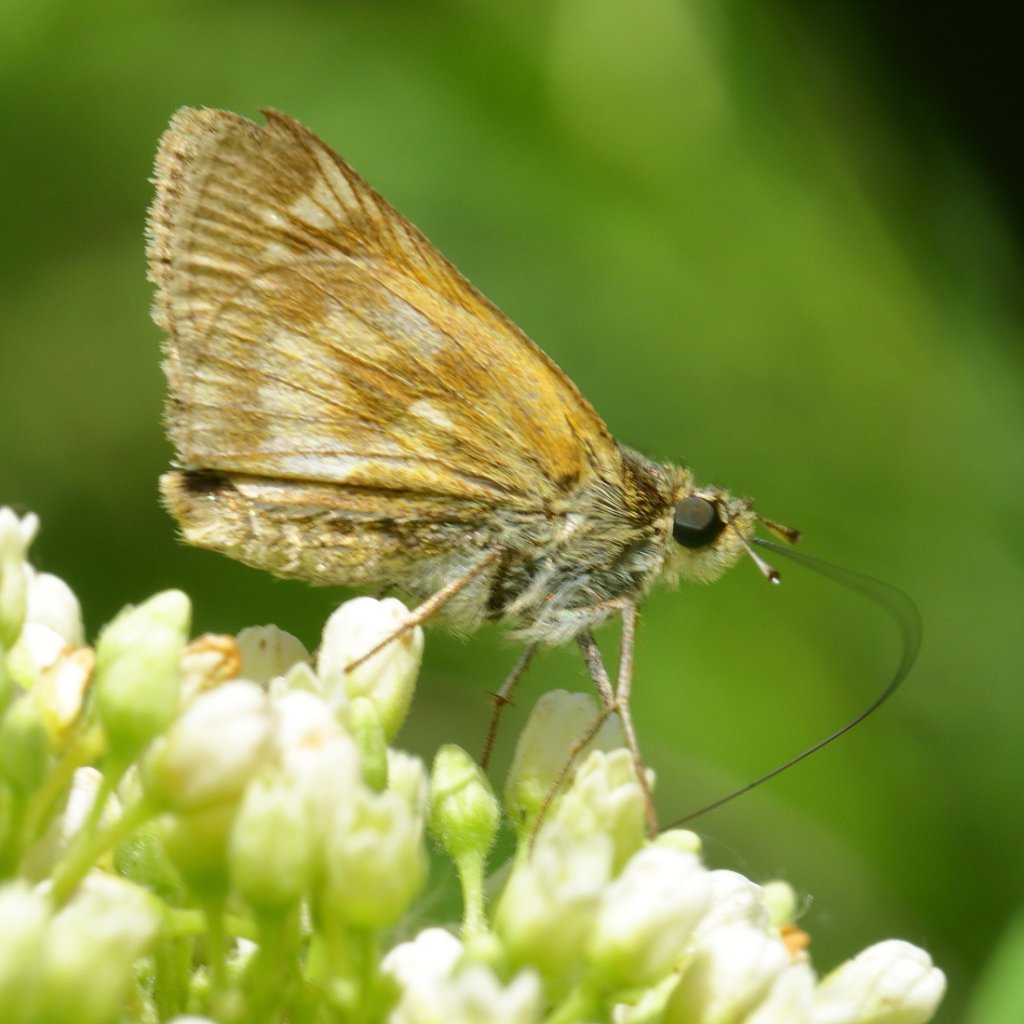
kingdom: Animalia
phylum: Arthropoda
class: Insecta
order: Lepidoptera
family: Hesperiidae
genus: Polites
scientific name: Polites
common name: Long Dash Skipper
